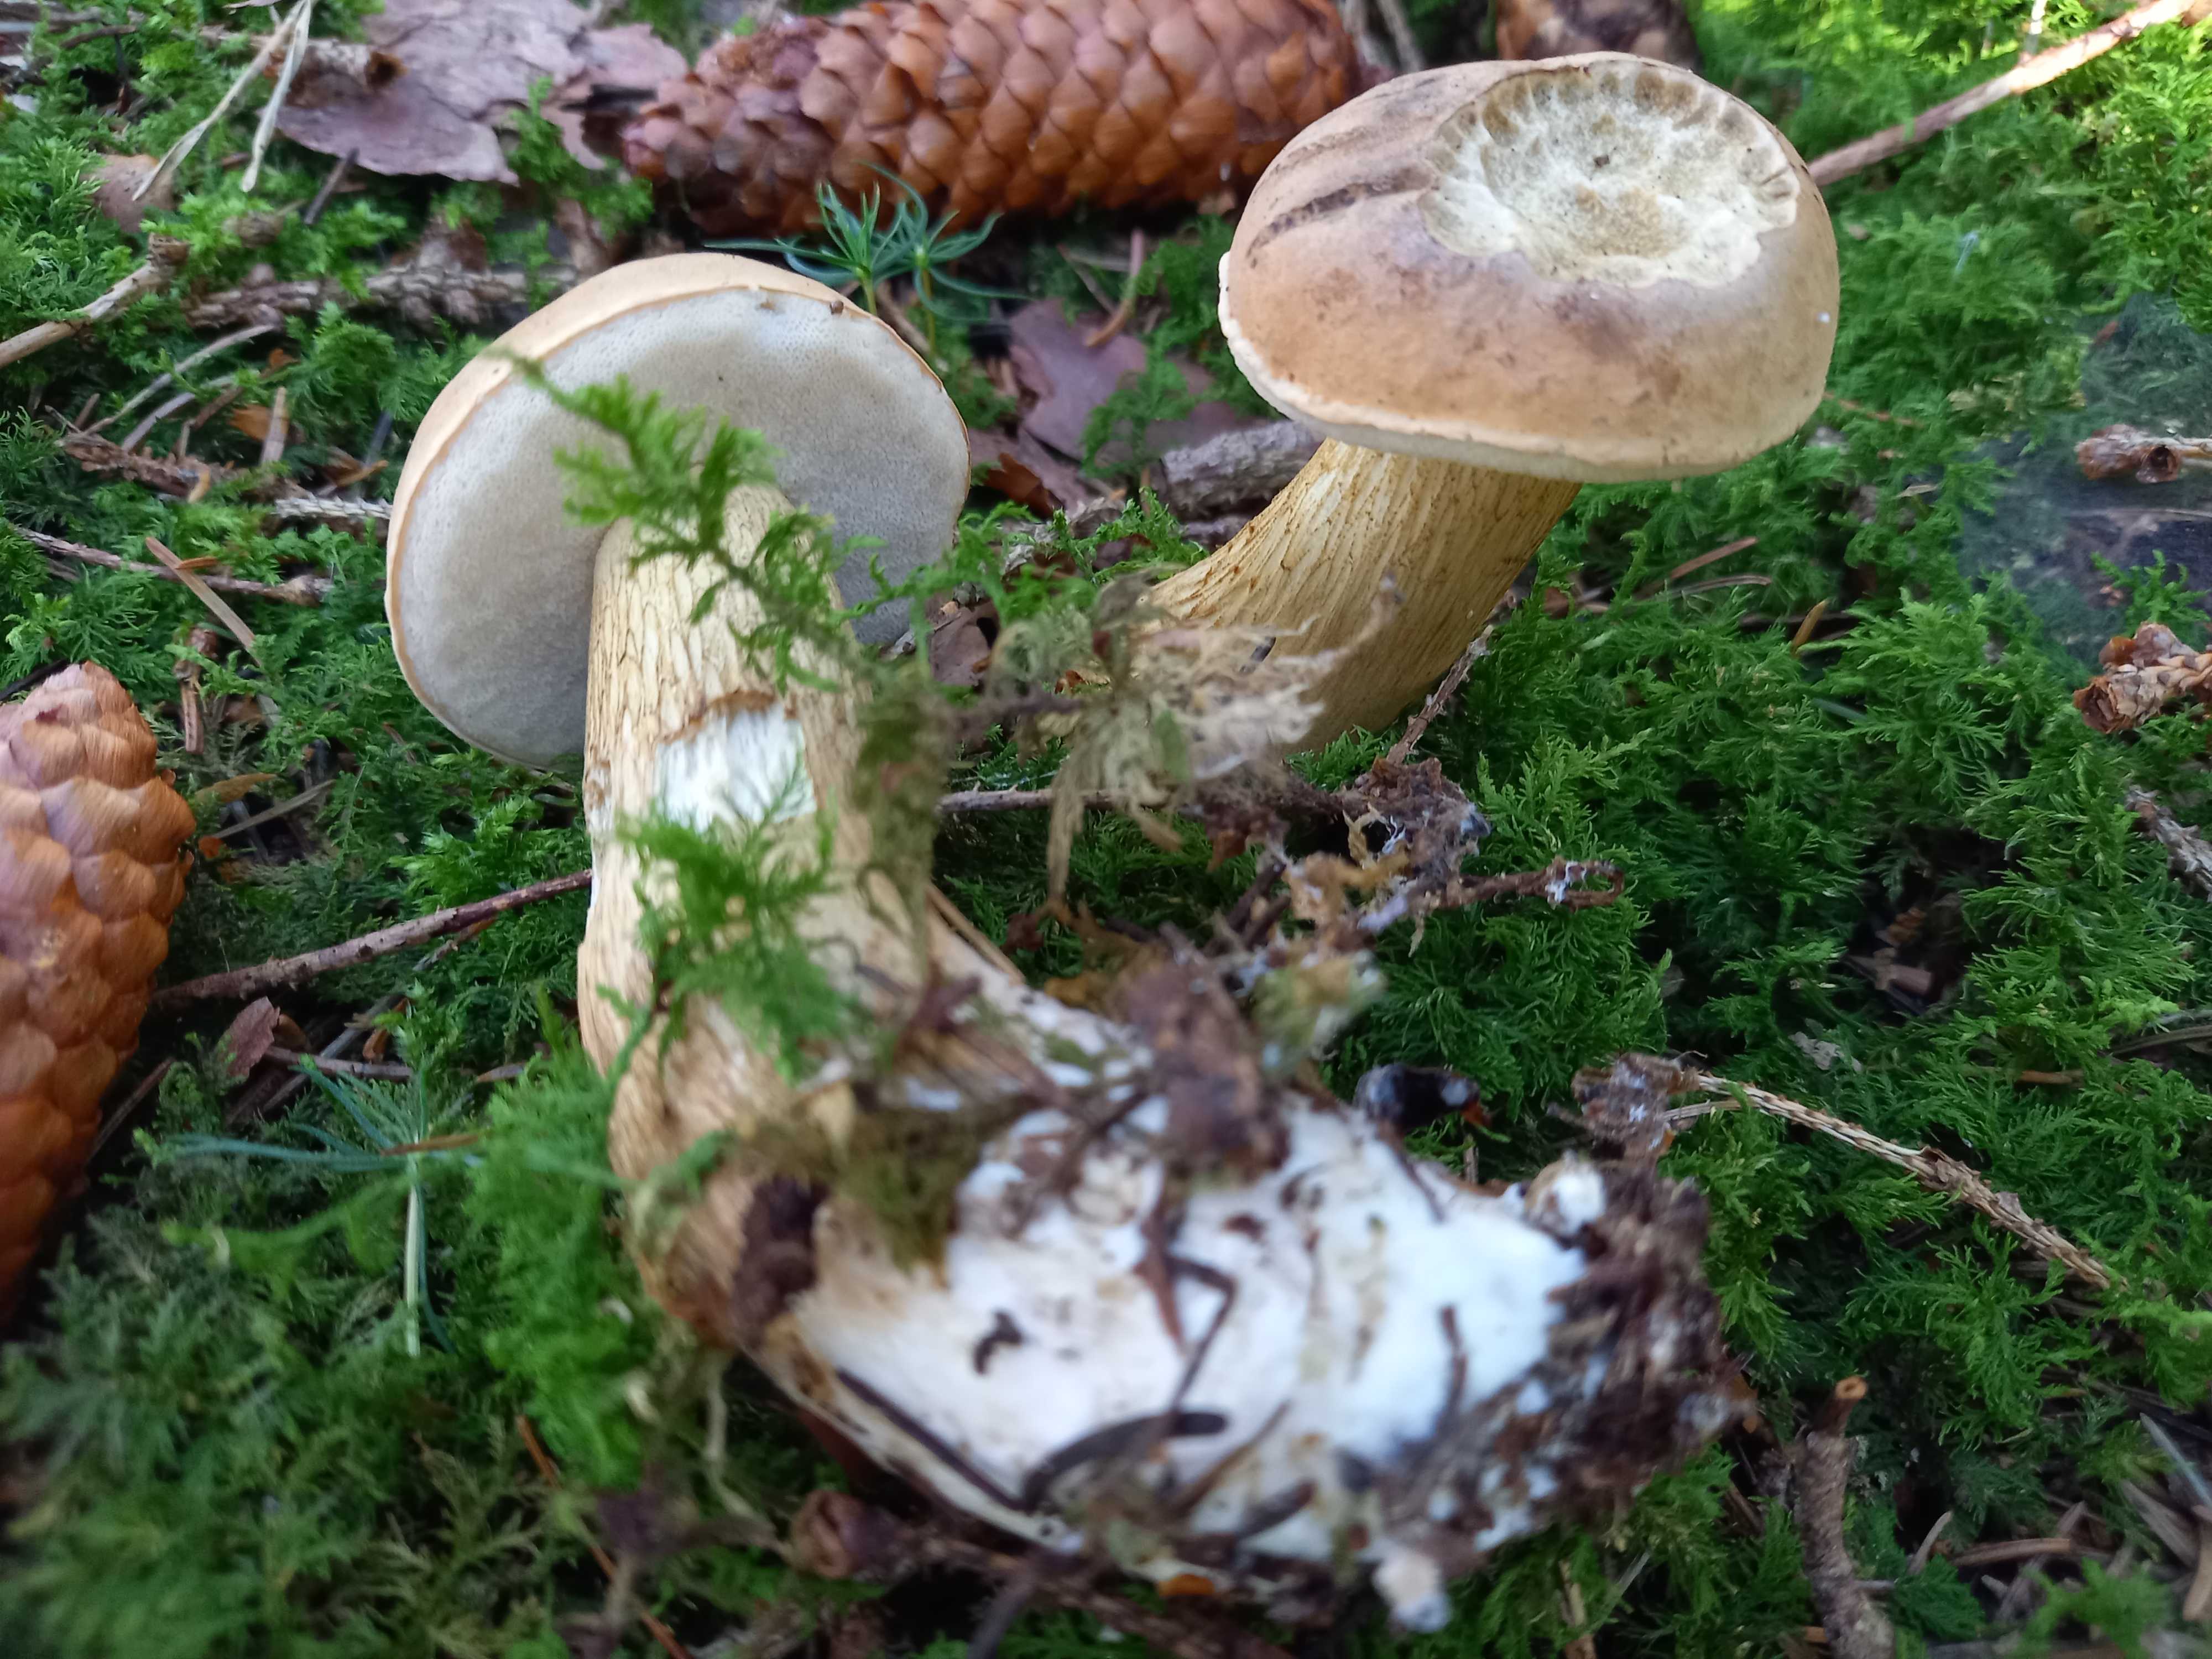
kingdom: Fungi
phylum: Basidiomycota
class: Agaricomycetes
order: Boletales
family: Boletaceae
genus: Tylopilus
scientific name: Tylopilus felleus
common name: galderørhat
